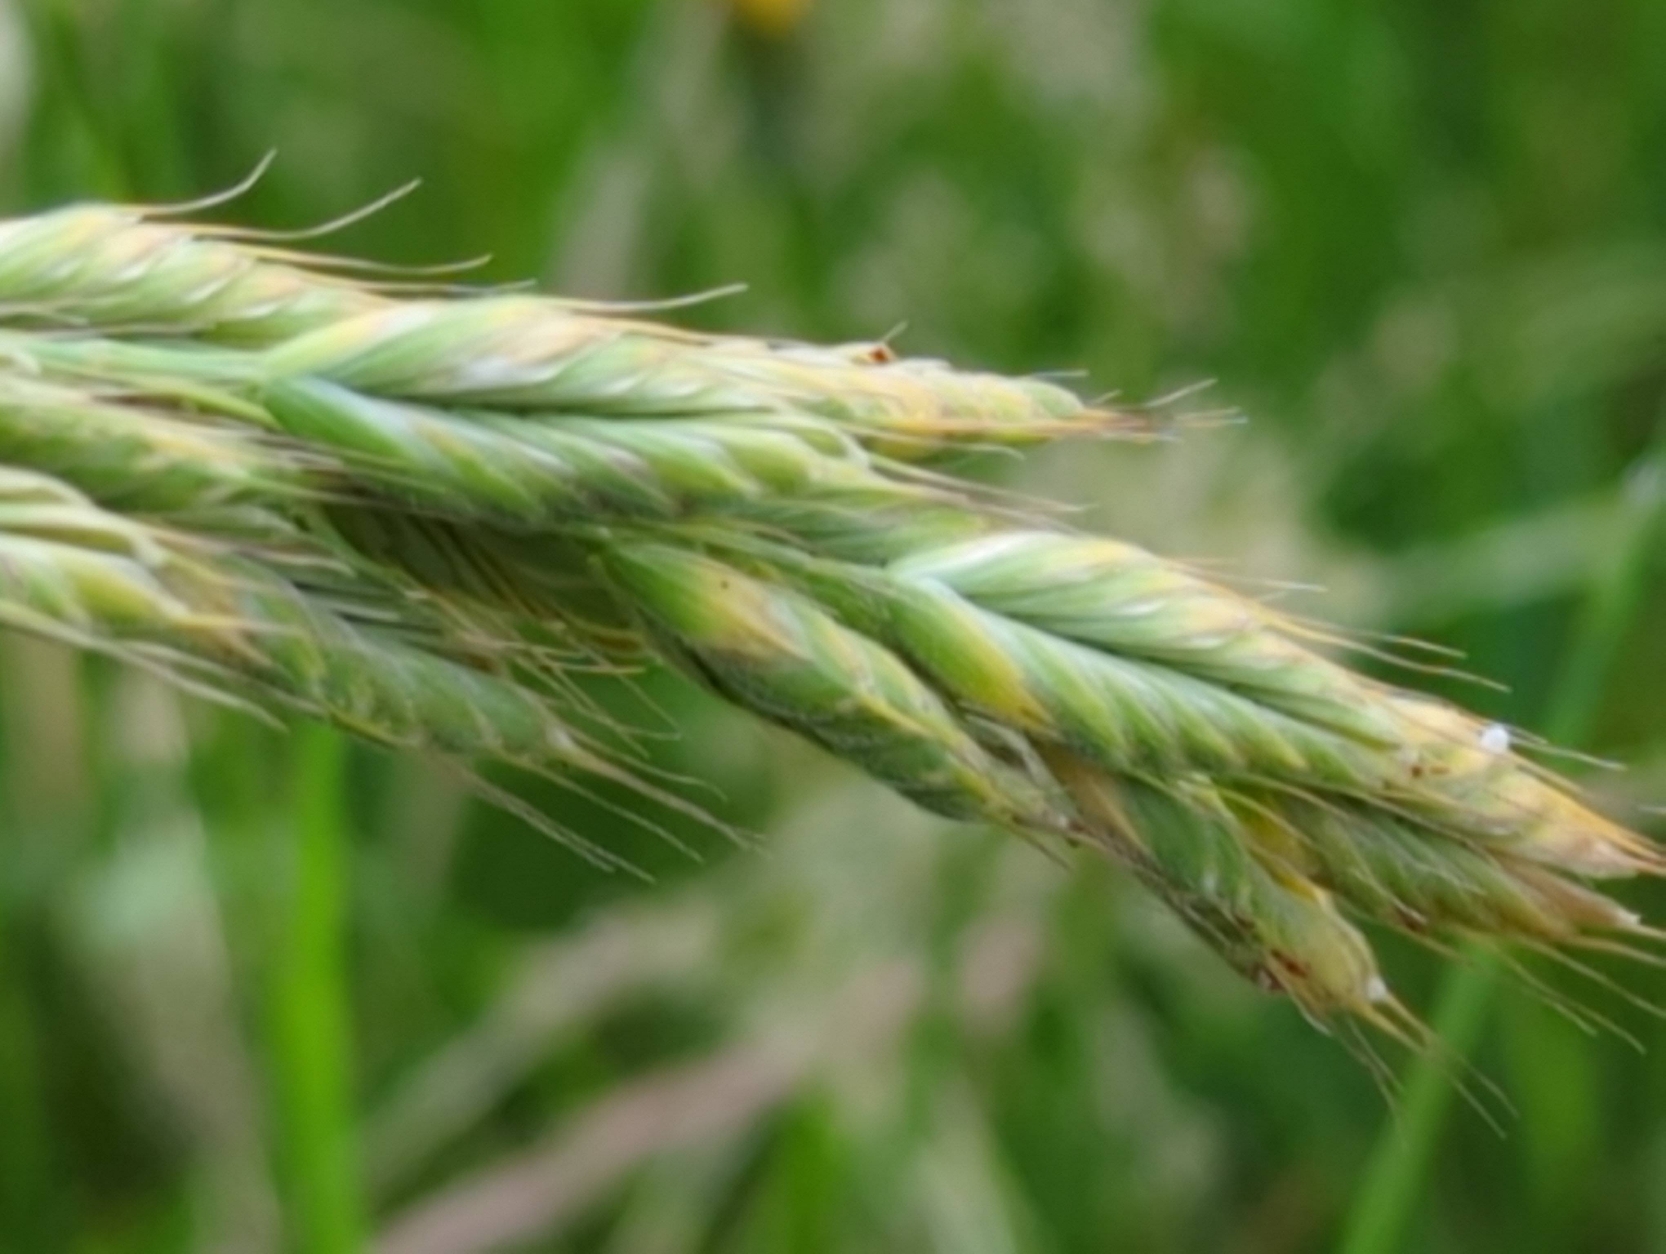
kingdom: Plantae
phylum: Tracheophyta
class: Liliopsida
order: Poales
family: Poaceae
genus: Bromus
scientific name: Bromus hordeaceus
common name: Blød hejre
